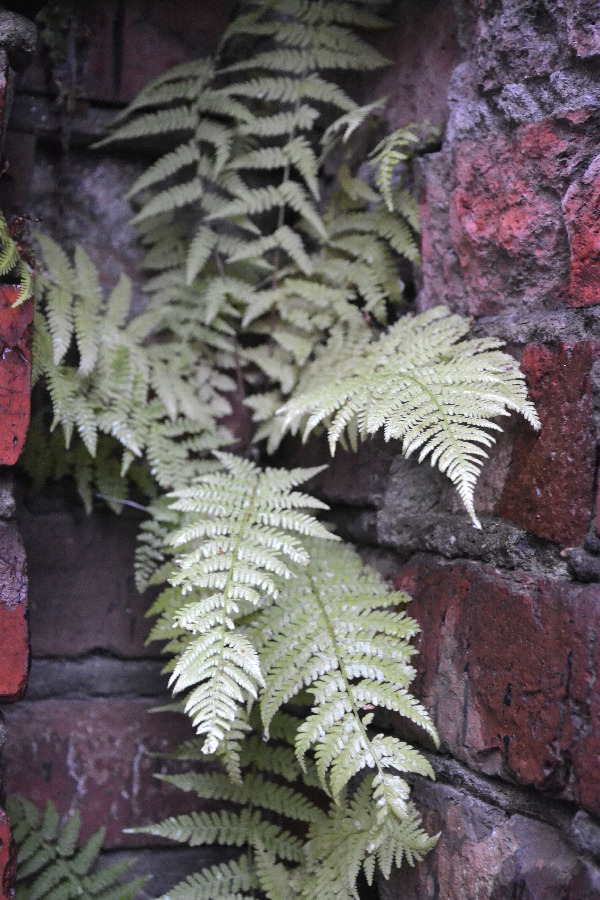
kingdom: Plantae
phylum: Tracheophyta
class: Polypodiopsida
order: Polypodiales
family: Cystopteridaceae
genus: Cystopteris
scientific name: Cystopteris fragilis
